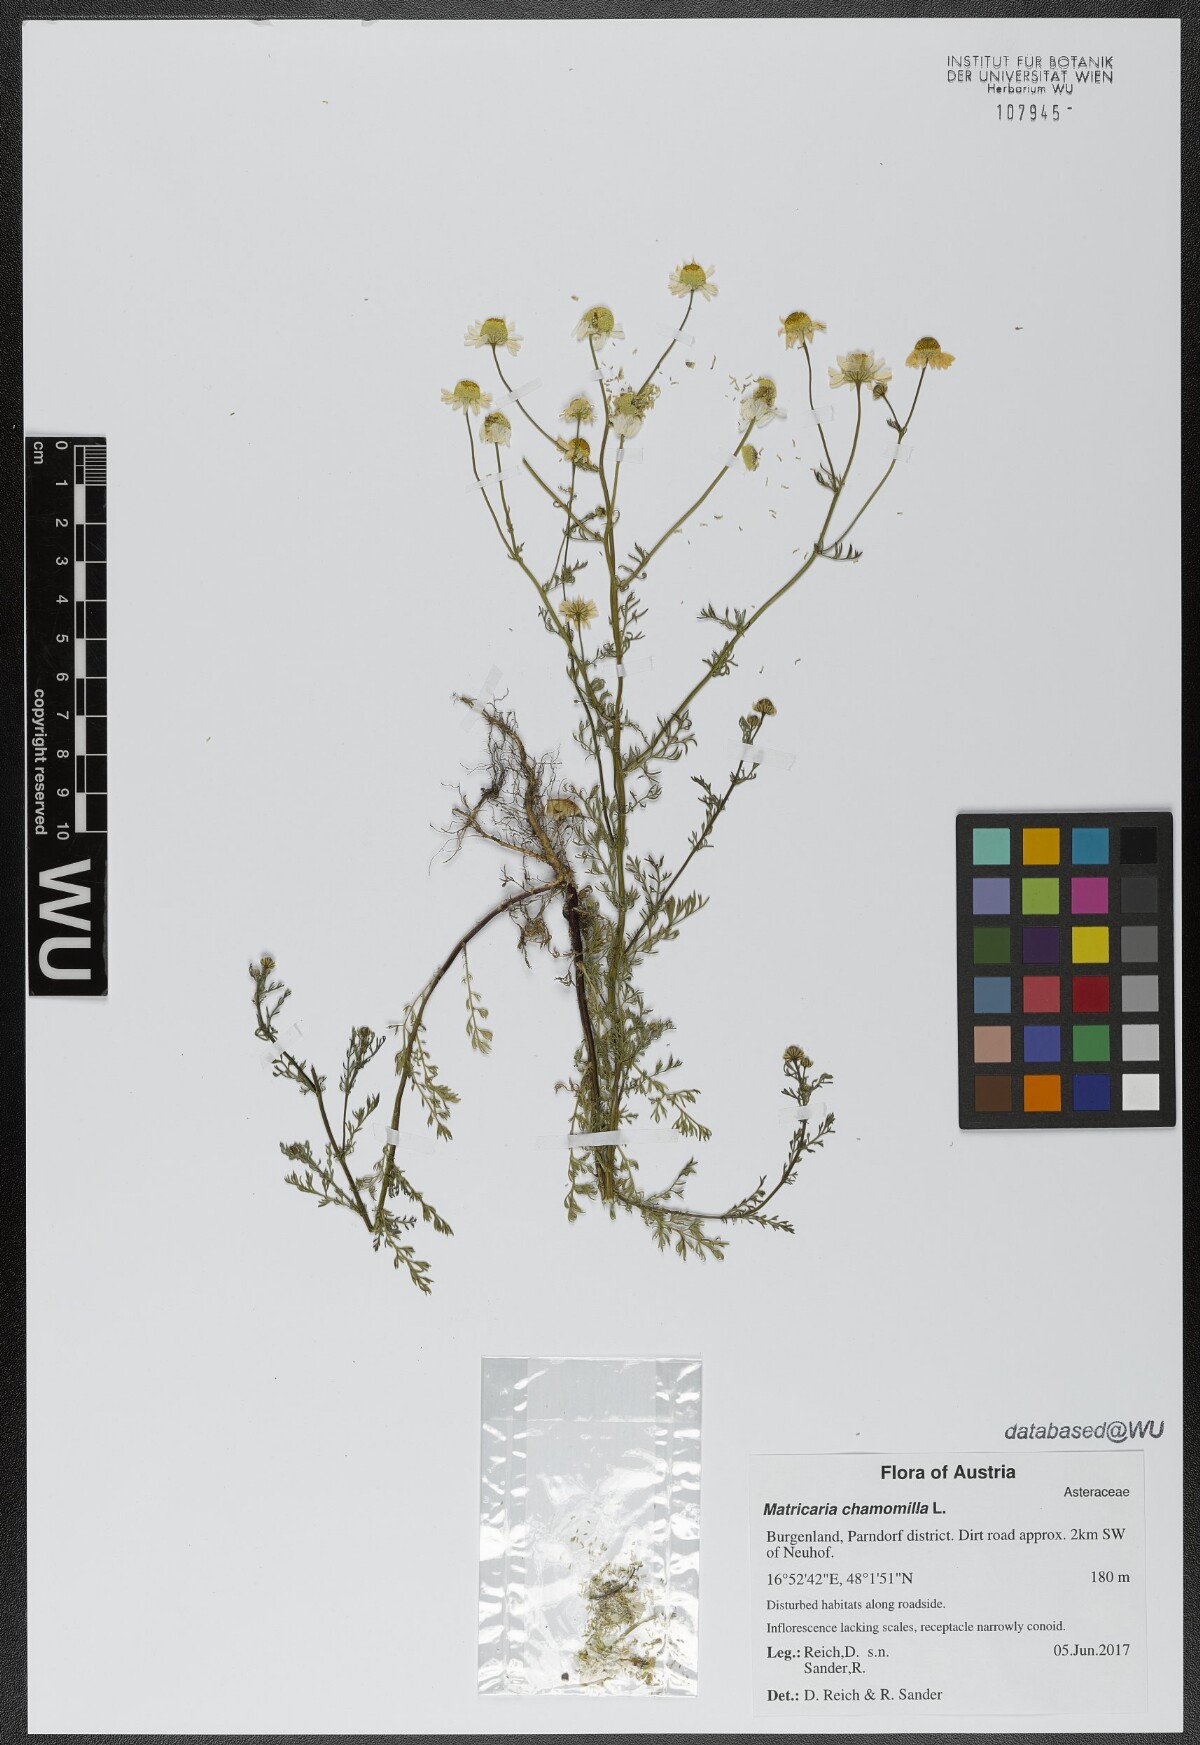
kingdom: Plantae
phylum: Tracheophyta
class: Magnoliopsida
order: Asterales
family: Asteraceae
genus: Matricaria
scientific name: Matricaria chamomilla
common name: Scented mayweed
